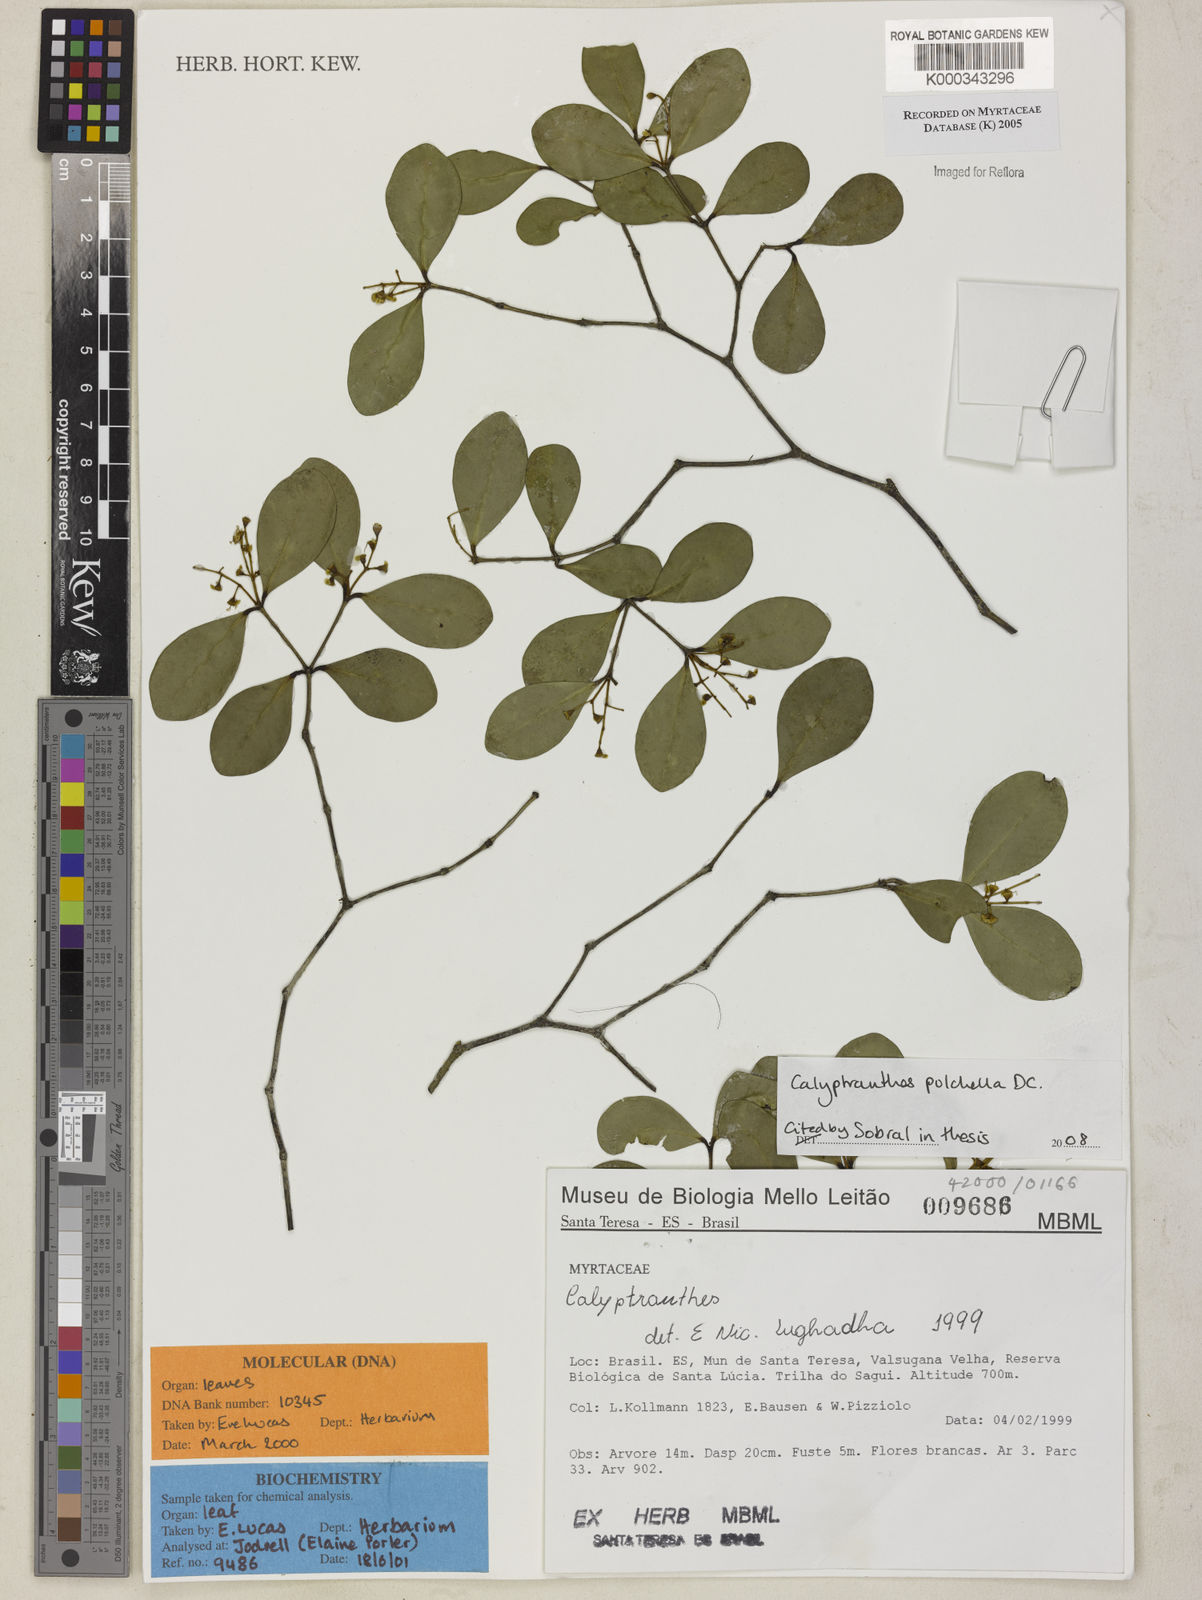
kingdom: Plantae
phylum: Tracheophyta
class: Magnoliopsida
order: Myrtales
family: Myrtaceae
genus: Myrcia
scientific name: Myrcia neolucida
